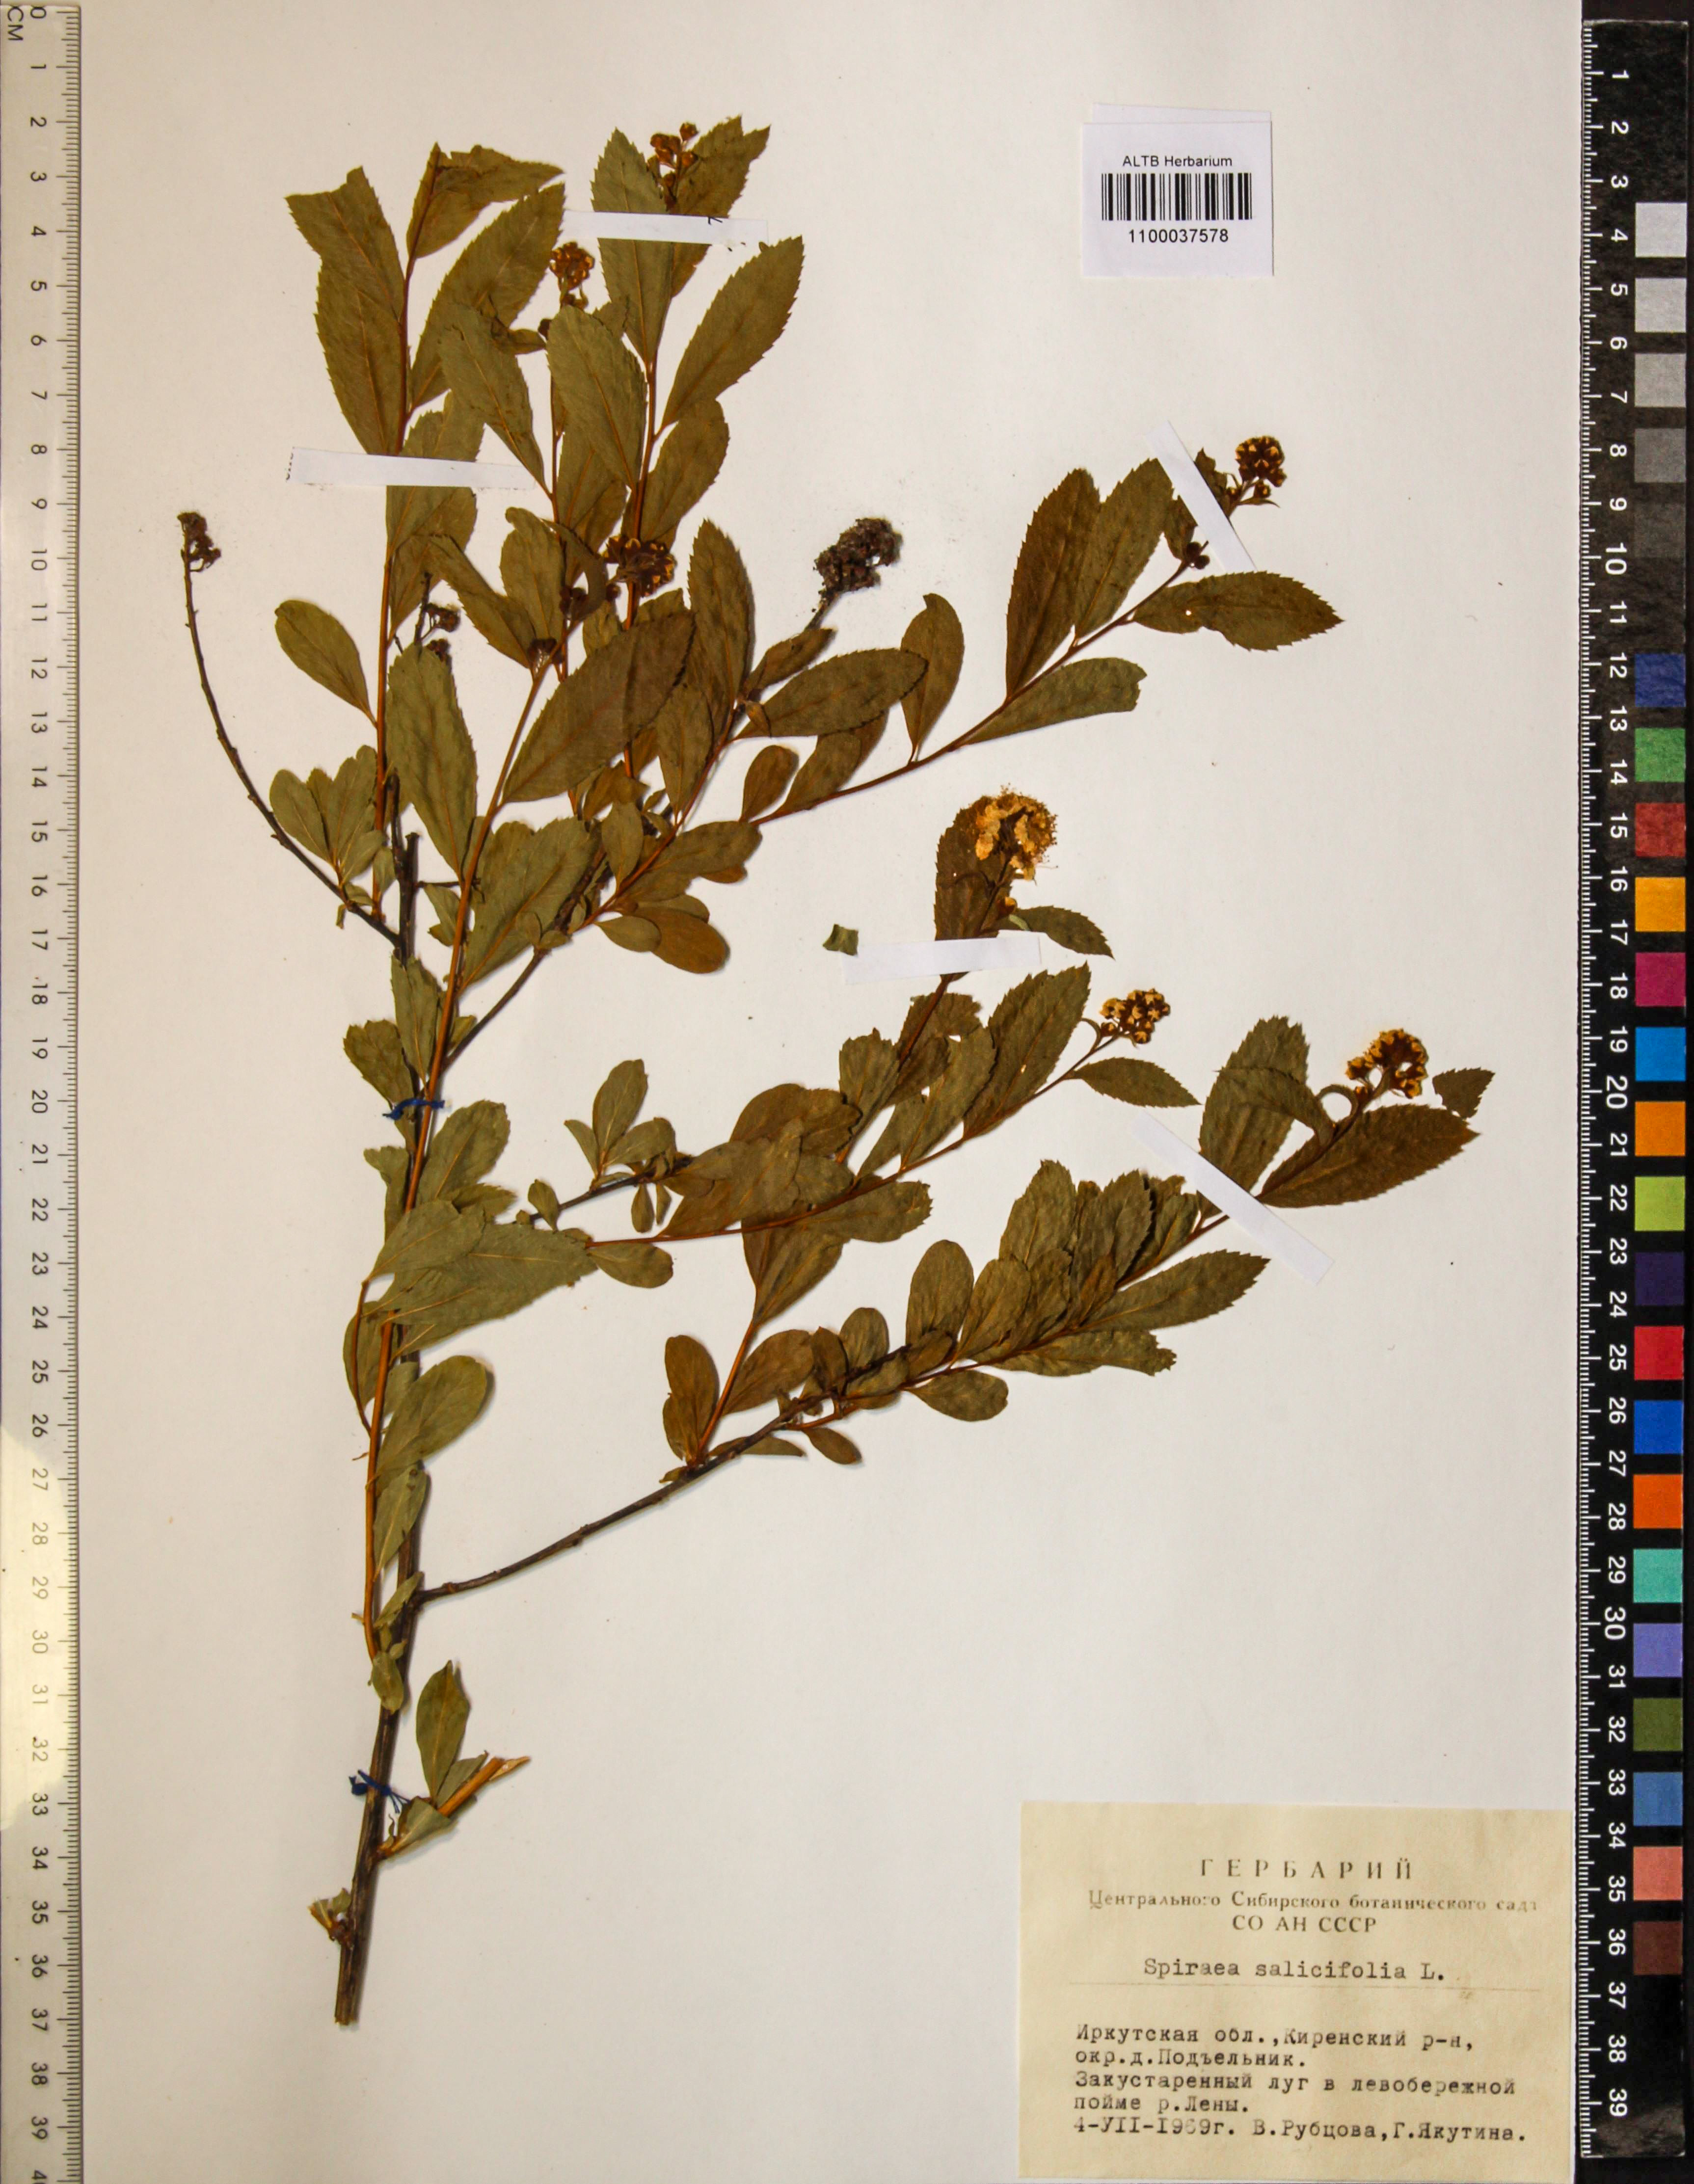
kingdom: Plantae
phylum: Tracheophyta
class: Magnoliopsida
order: Rosales
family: Rosaceae
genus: Spiraea
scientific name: Spiraea salicifolia
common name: Bridewort
